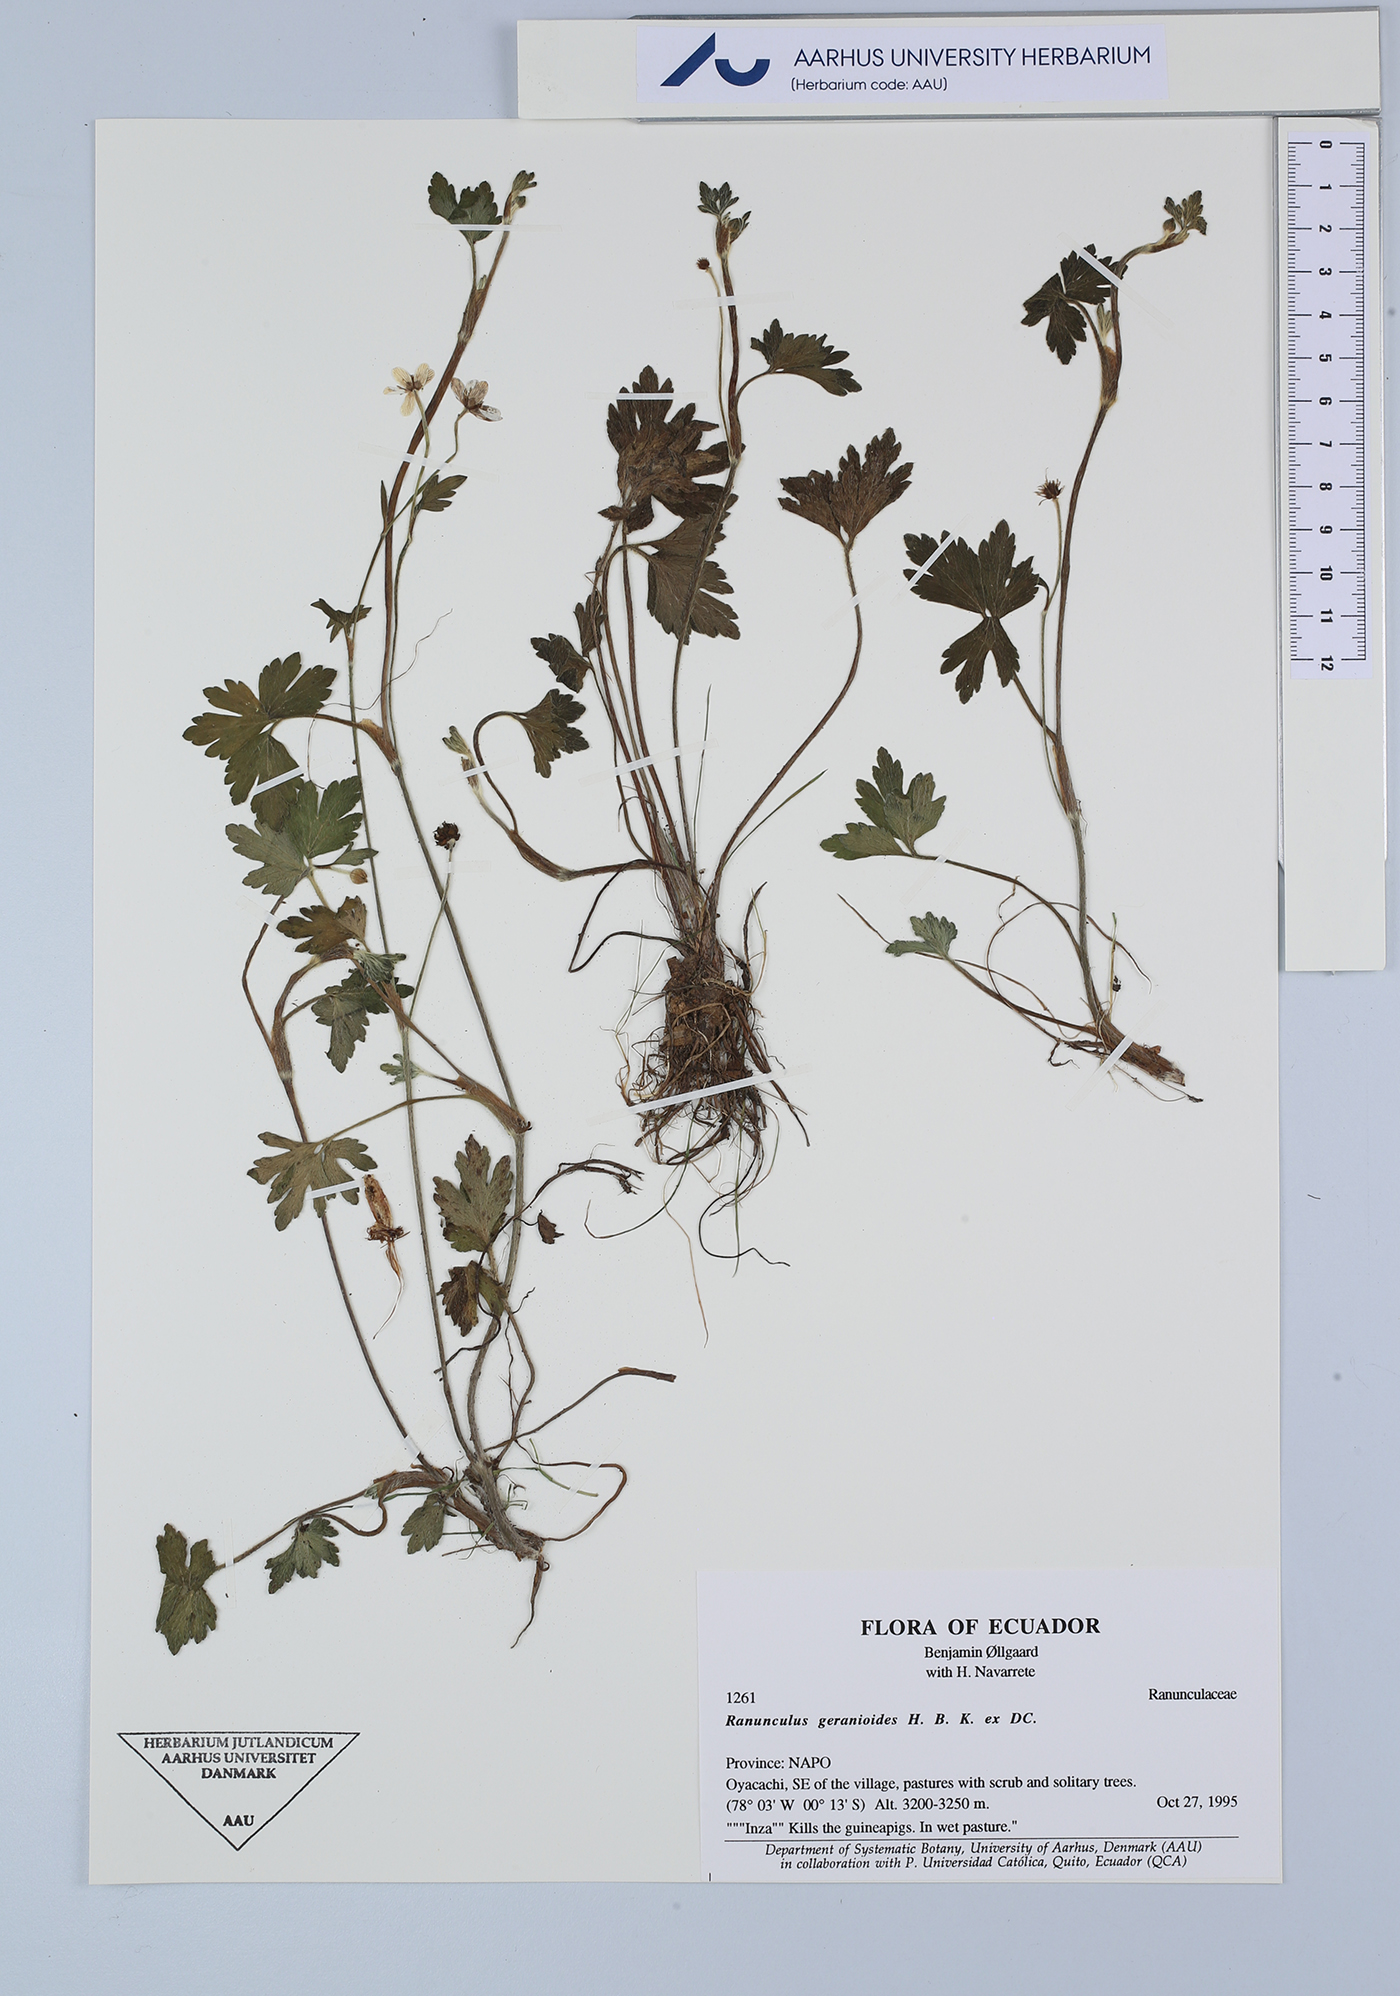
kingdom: Plantae
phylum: Tracheophyta
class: Magnoliopsida
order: Ranunculales
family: Ranunculaceae
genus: Ranunculus
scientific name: Ranunculus geranioides
